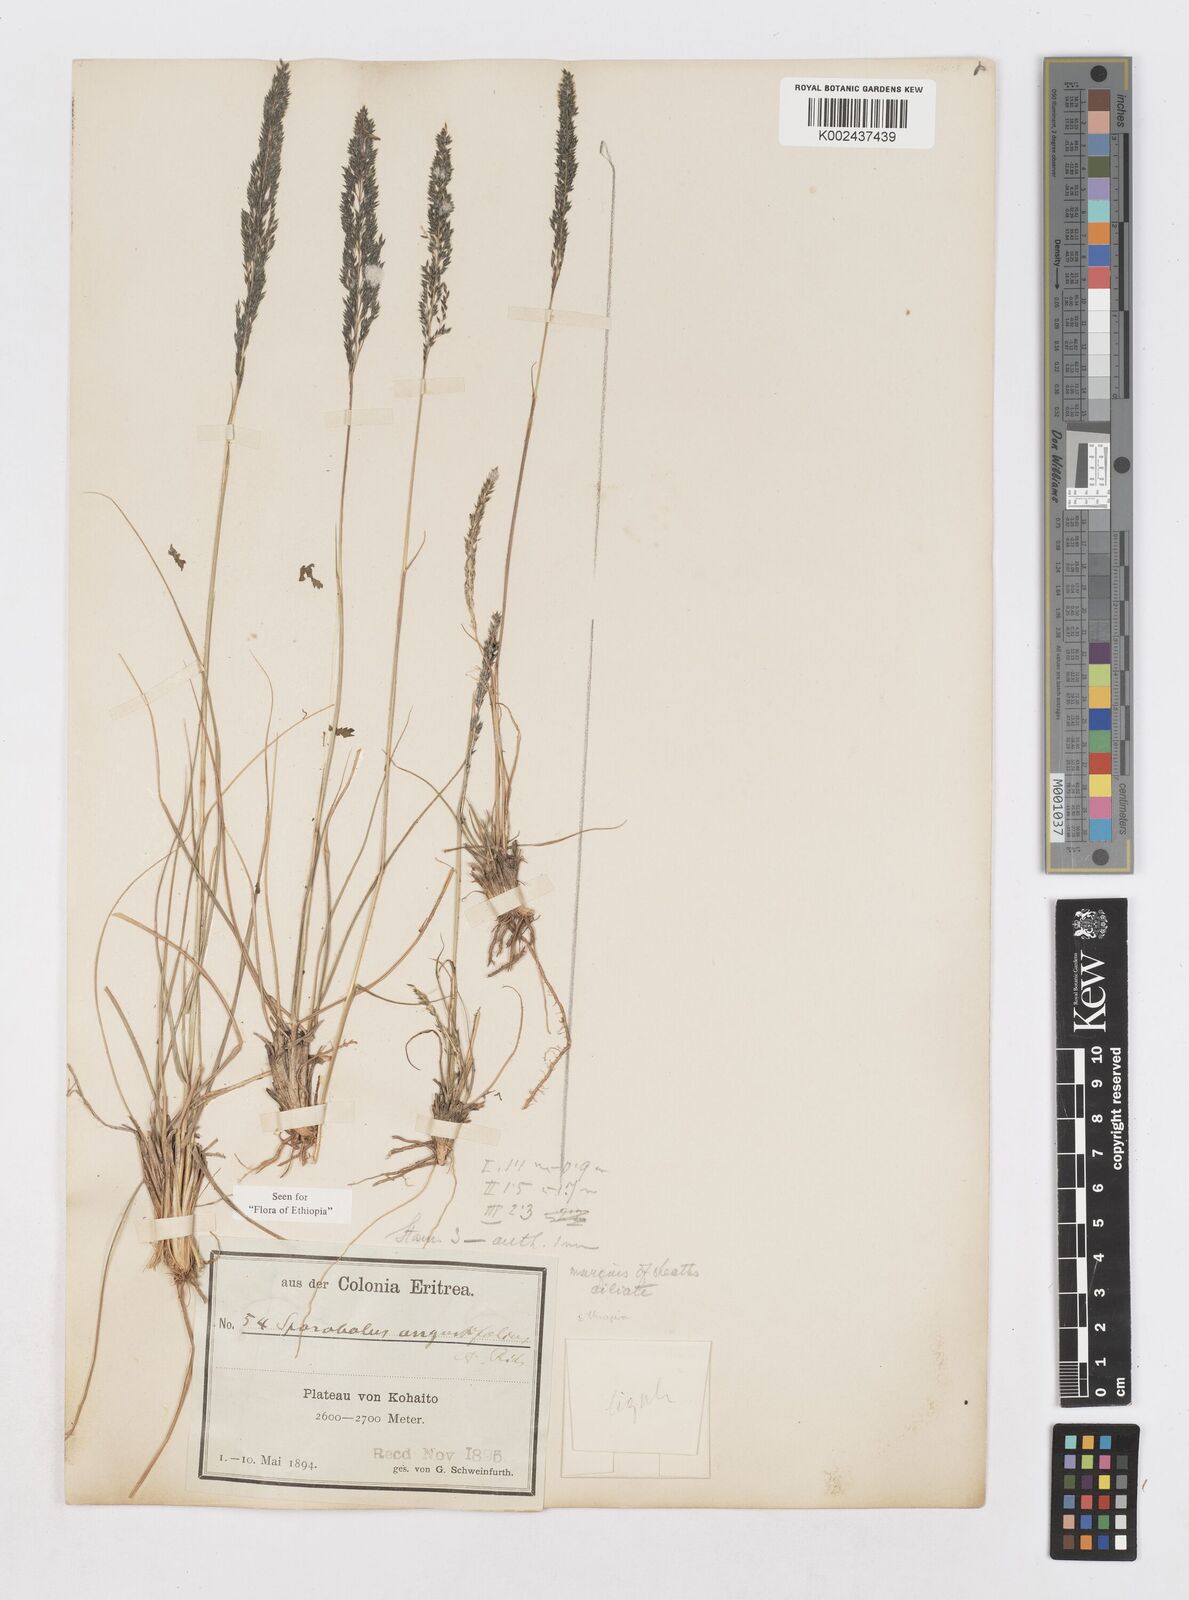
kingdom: Plantae
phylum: Tracheophyta
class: Liliopsida
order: Poales
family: Poaceae
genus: Sporobolus
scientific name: Sporobolus angustifolius
